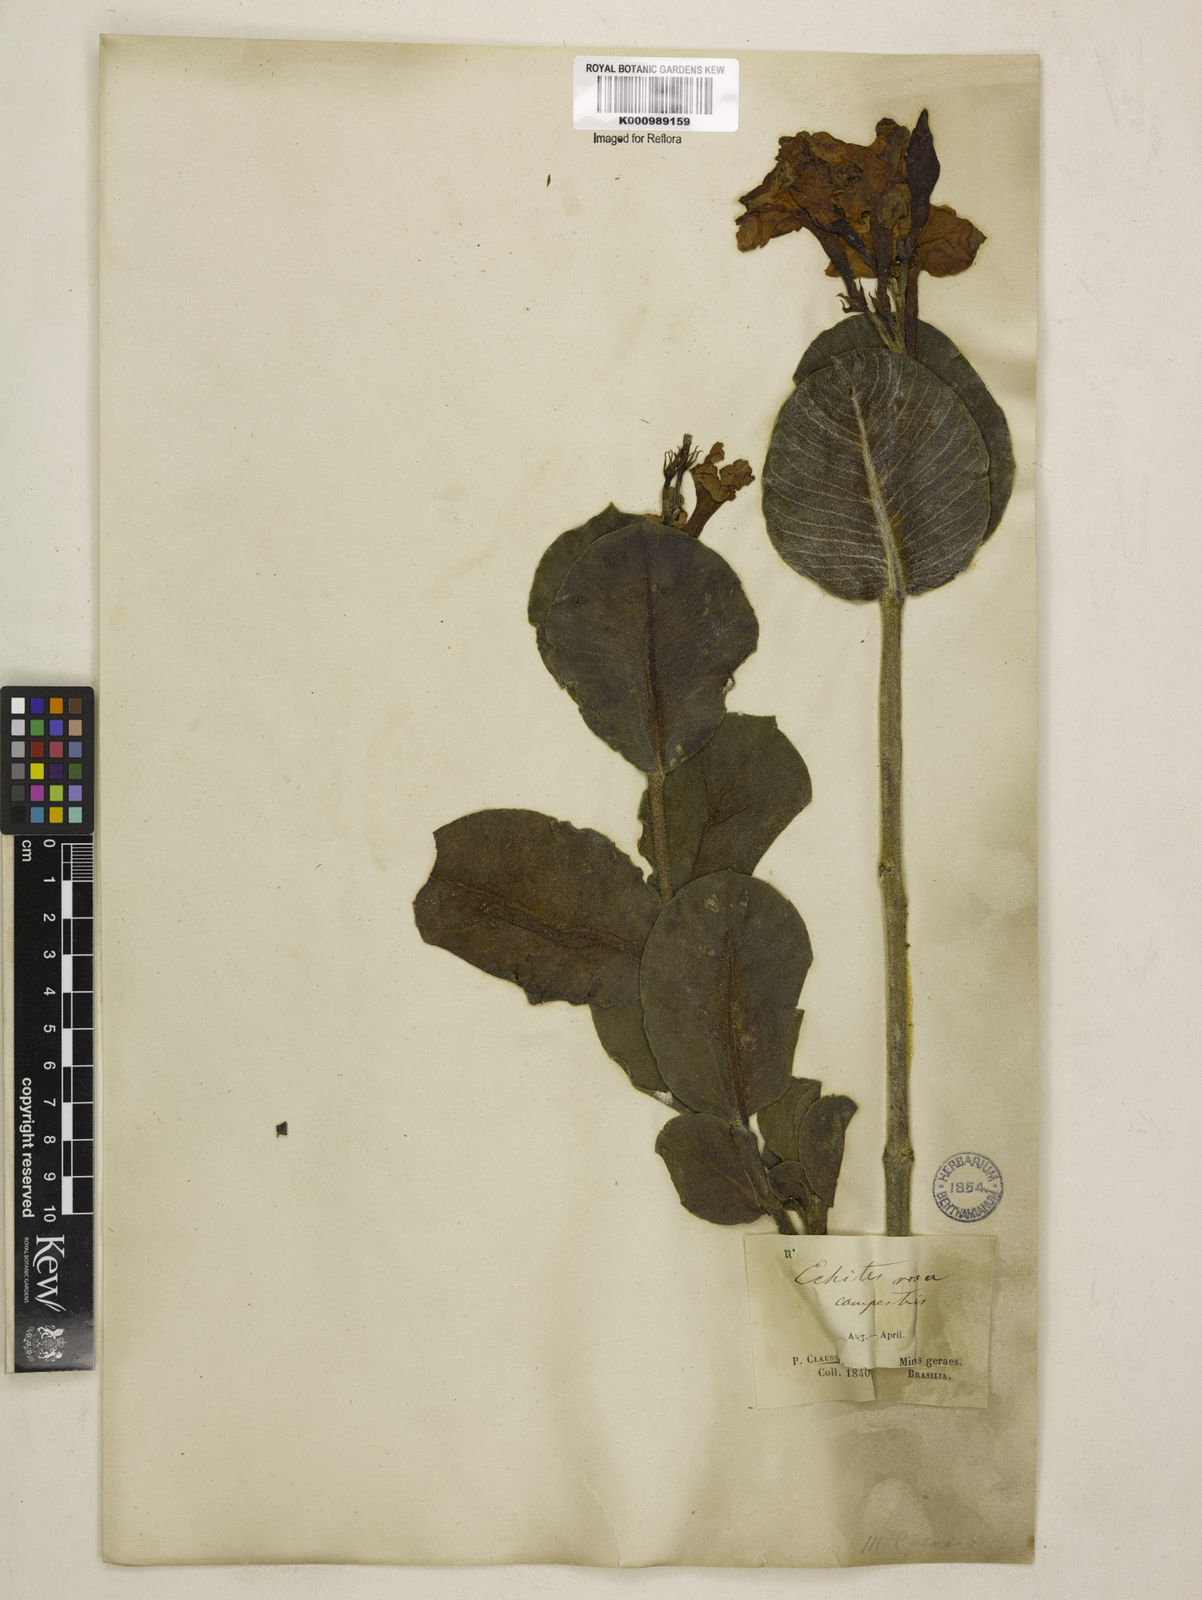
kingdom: Plantae
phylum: Tracheophyta
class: Magnoliopsida
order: Gentianales
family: Apocynaceae
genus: Mandevilla
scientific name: Mandevilla illustris
